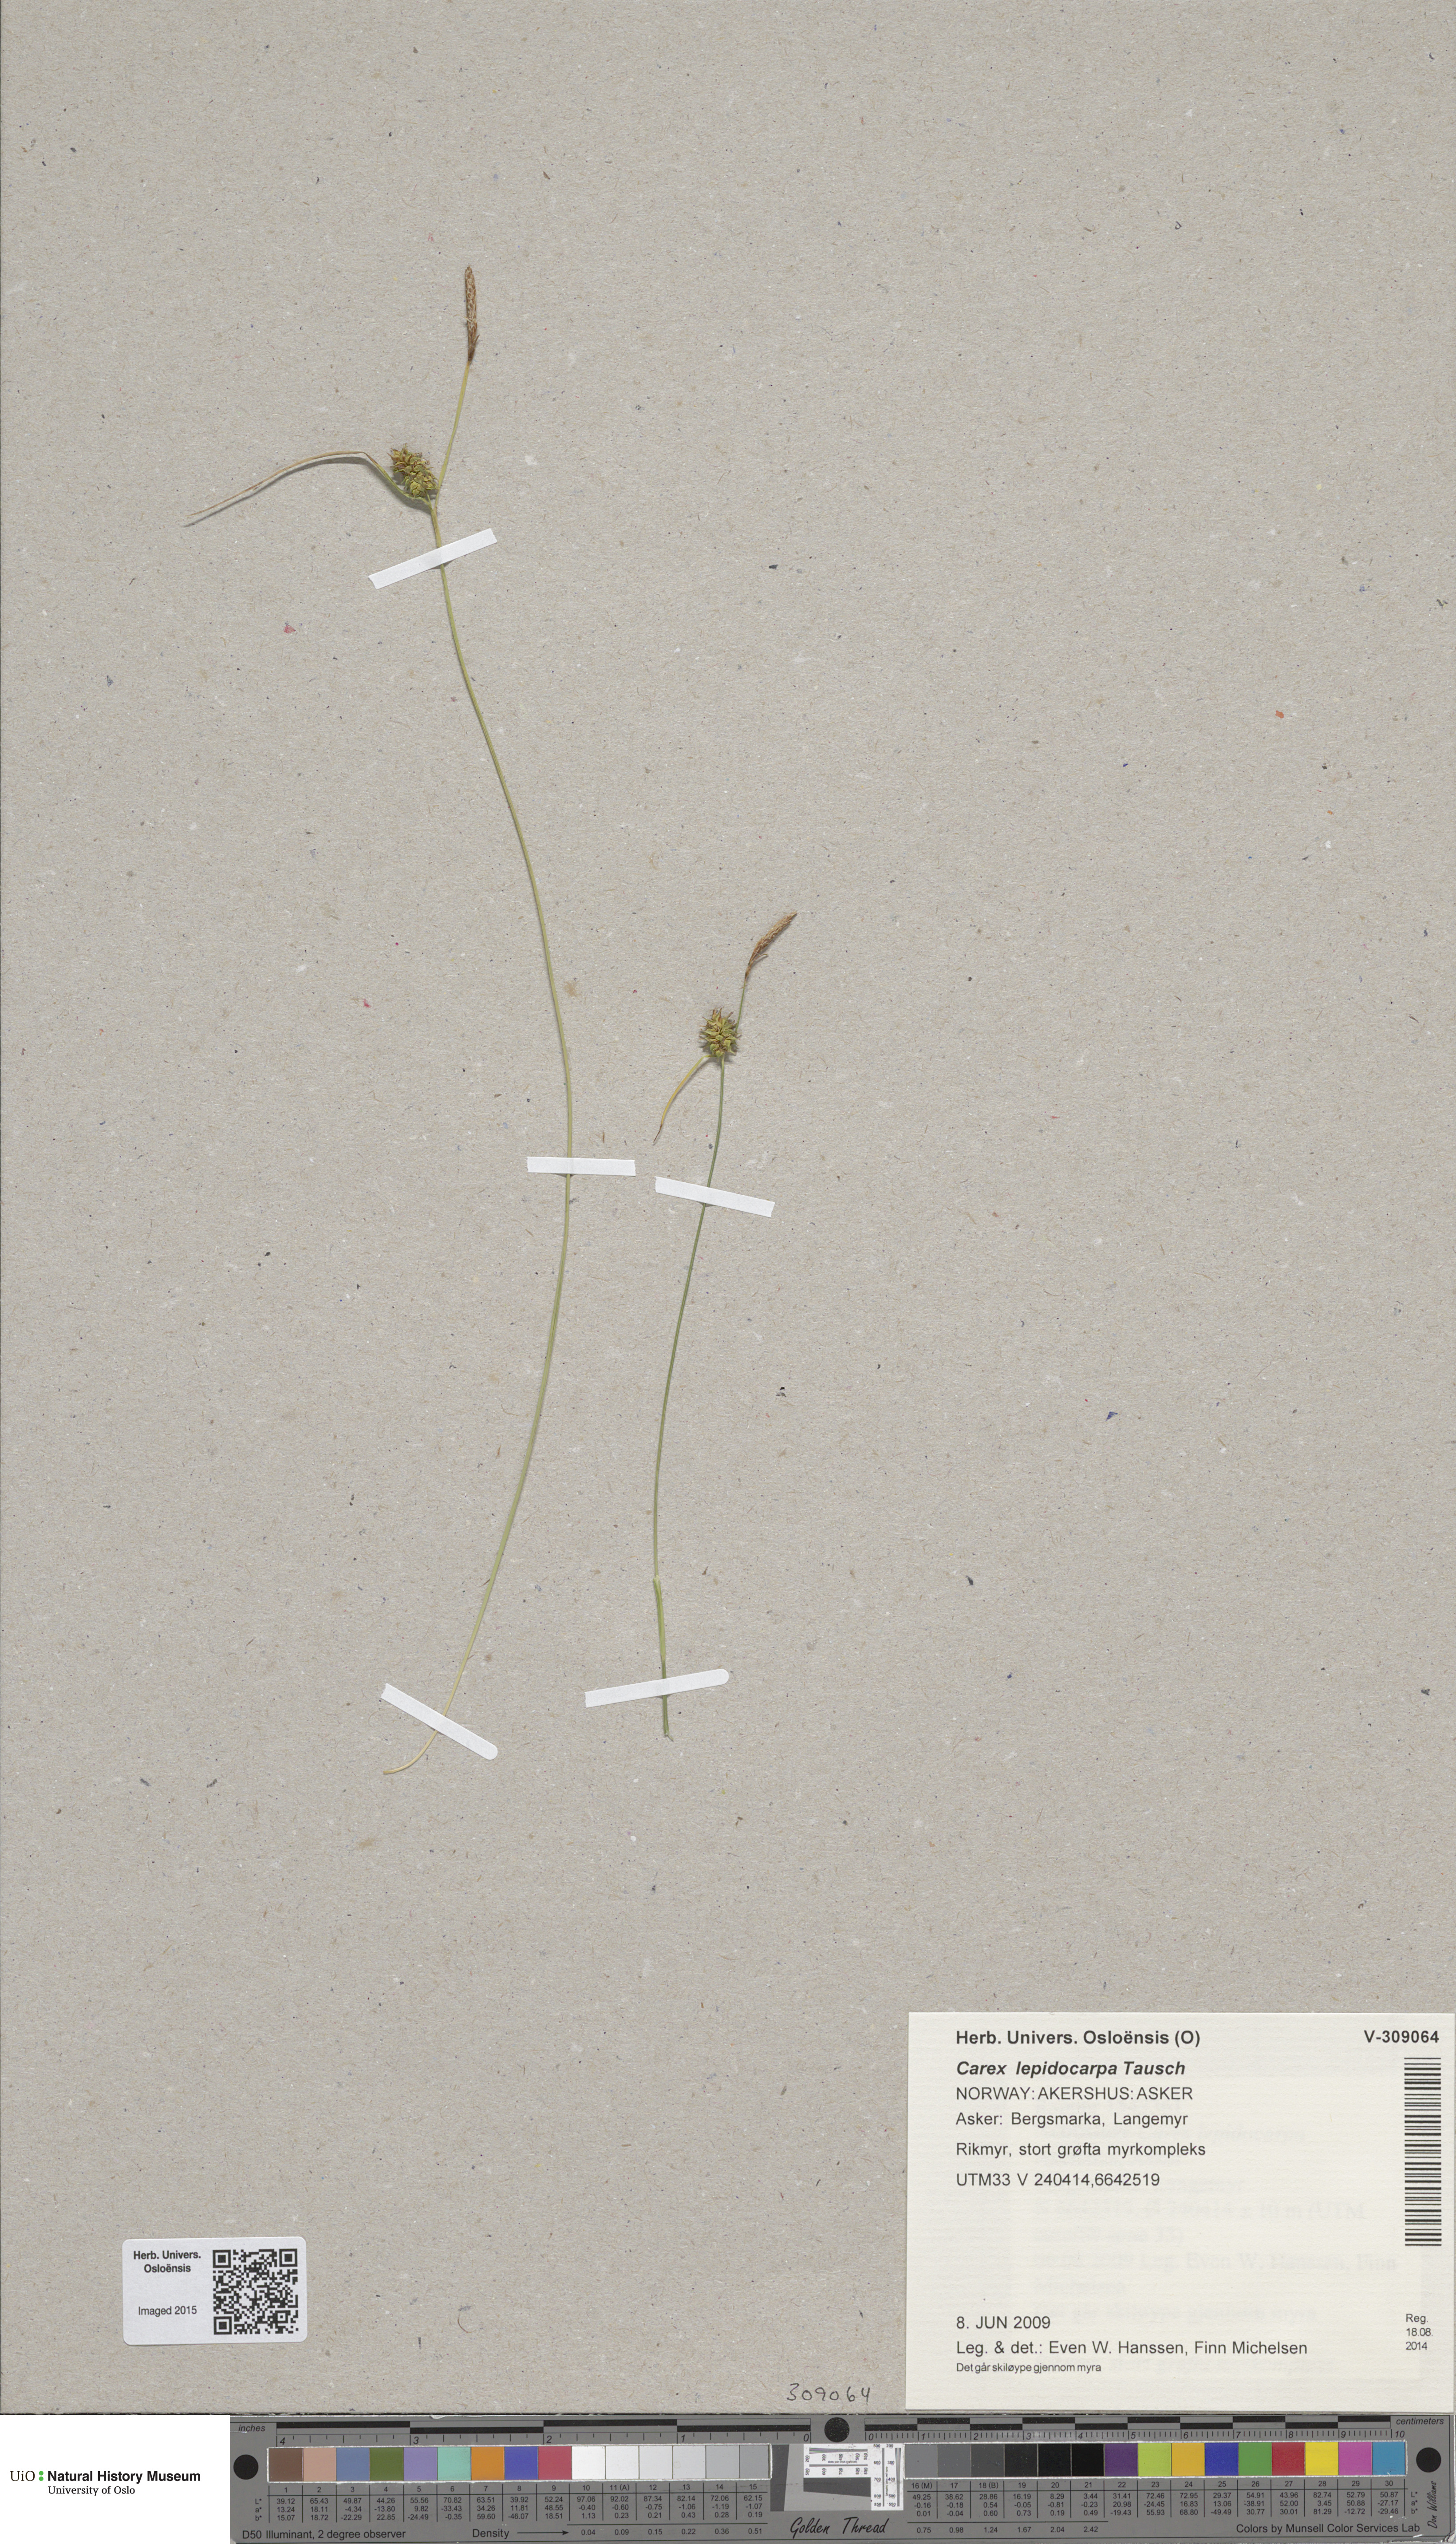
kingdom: Plantae
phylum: Tracheophyta
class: Liliopsida
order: Poales
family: Cyperaceae
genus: Carex
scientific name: Carex lepidocarpa
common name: Long-stalked yellow-sedge
